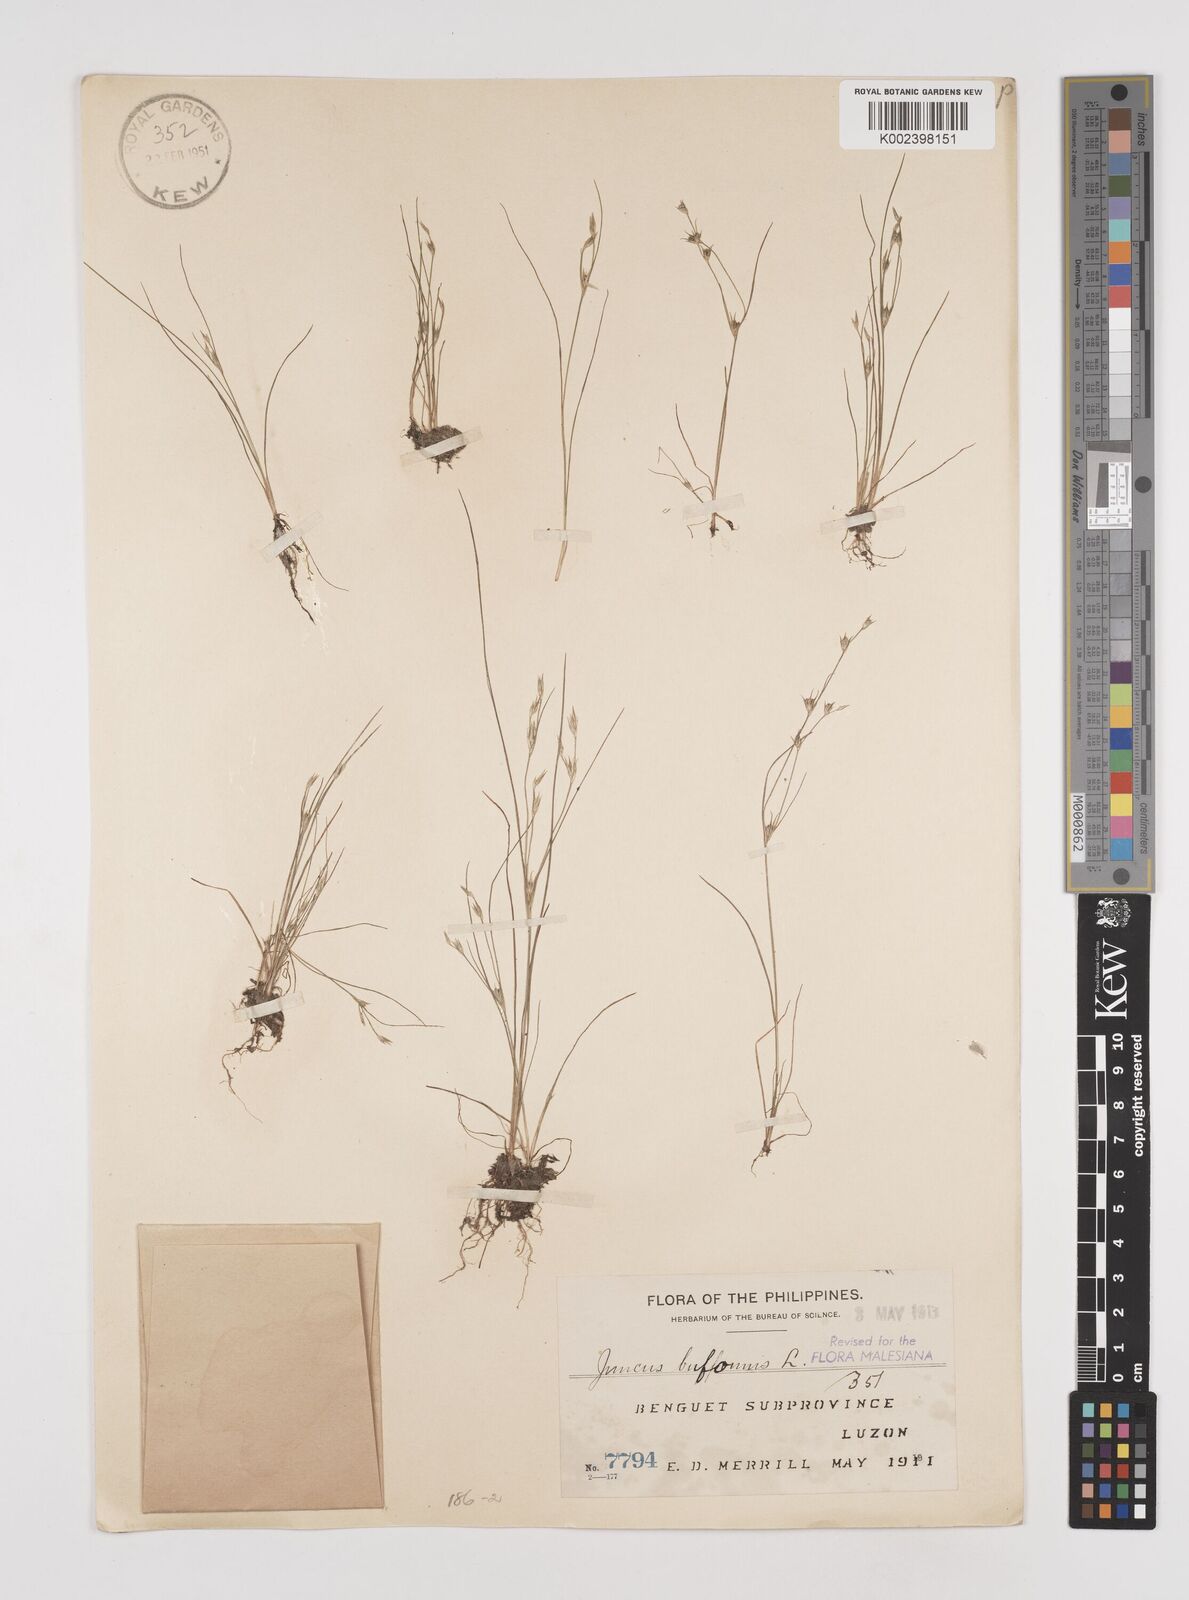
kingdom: Plantae
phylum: Tracheophyta
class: Liliopsida
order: Poales
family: Juncaceae
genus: Juncus
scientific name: Juncus bufonius
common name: Toad rush
